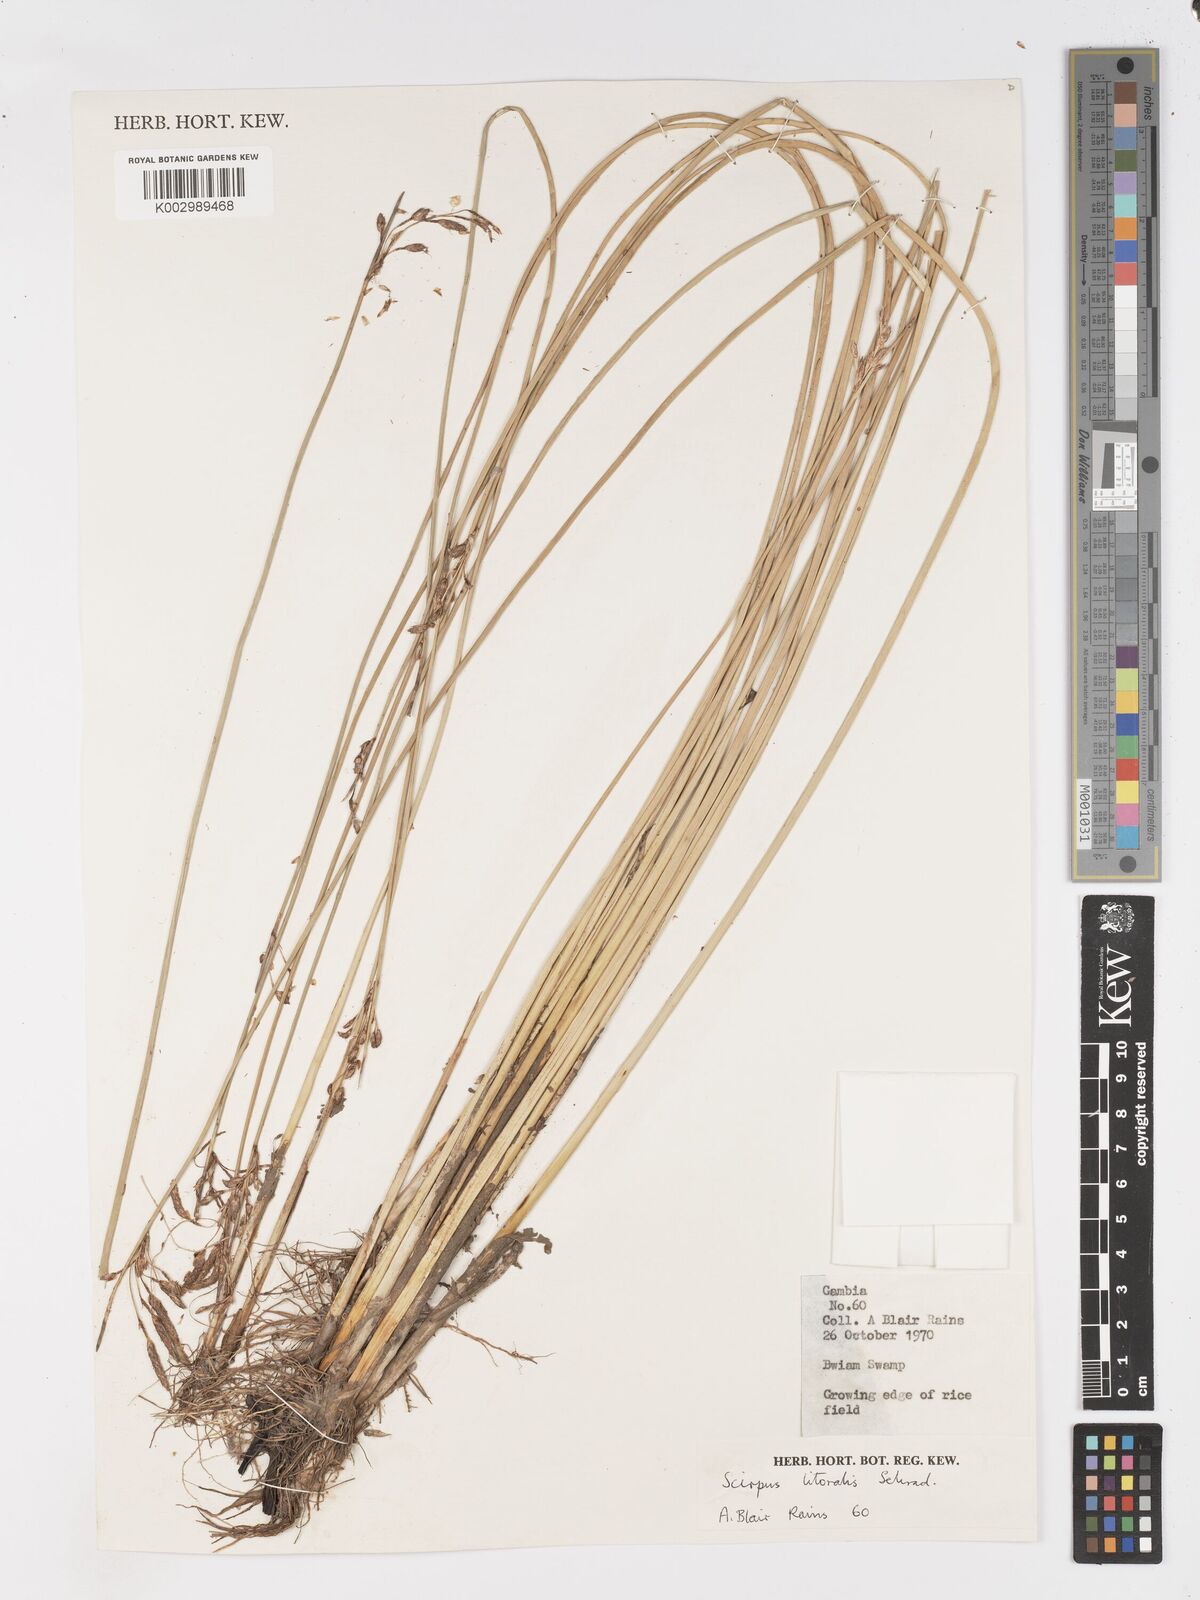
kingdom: Plantae
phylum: Tracheophyta
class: Liliopsida
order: Poales
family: Cyperaceae
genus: Schoenoplectus
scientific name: Schoenoplectus litoralis
